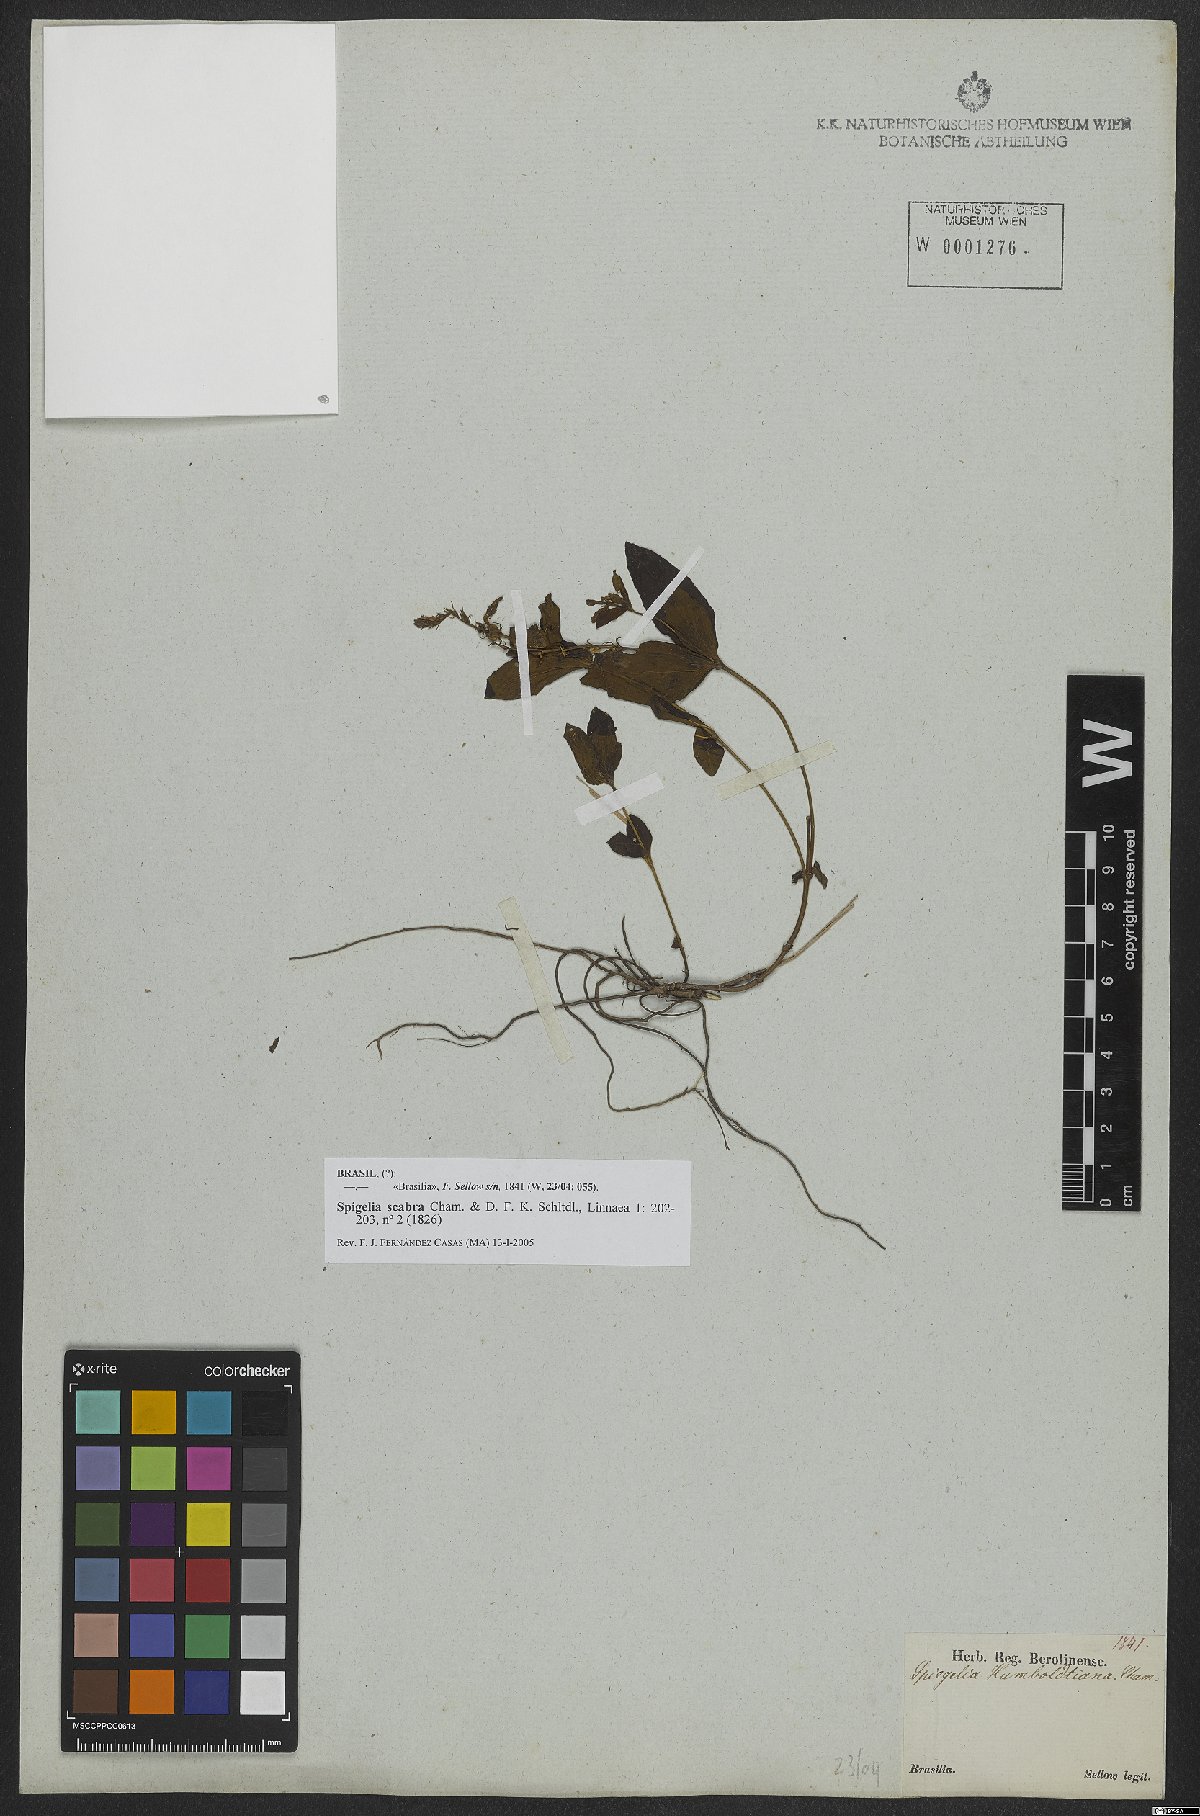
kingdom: Plantae
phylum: Tracheophyta
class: Magnoliopsida
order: Gentianales
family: Loganiaceae
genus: Spigelia
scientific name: Spigelia humboldtiana
